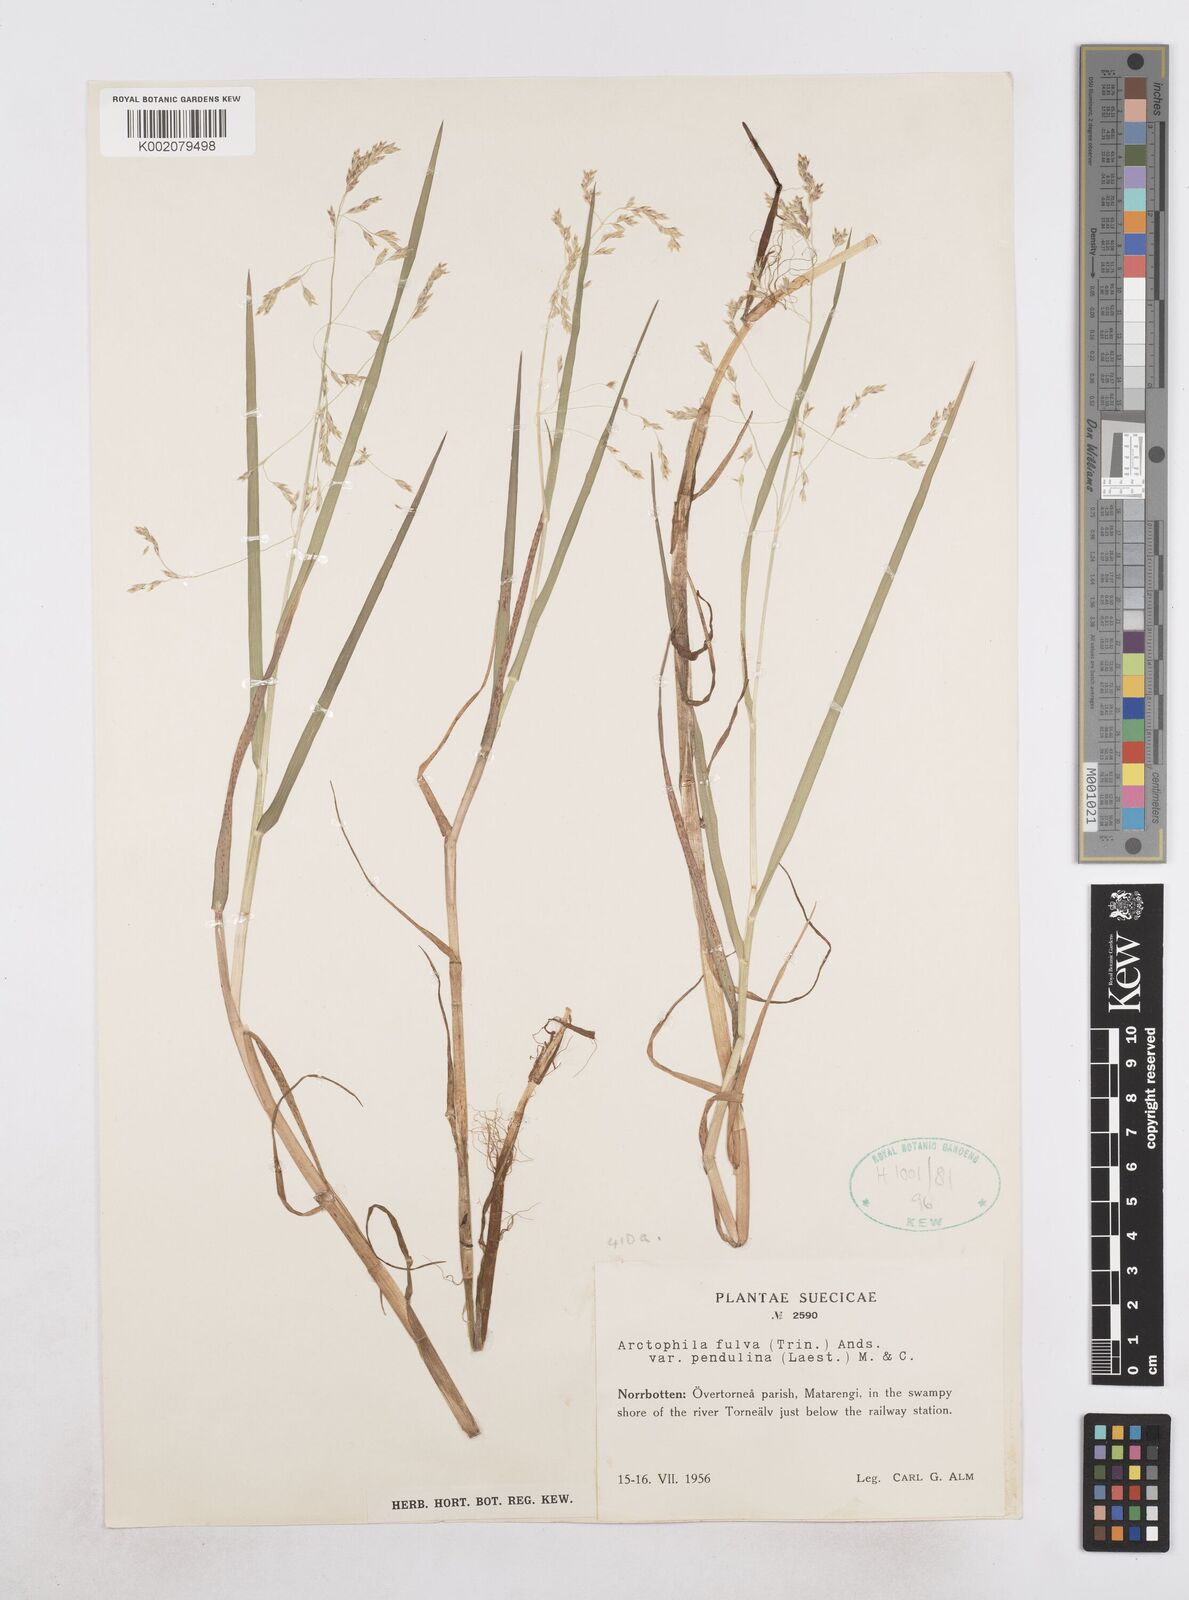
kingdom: Plantae
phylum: Tracheophyta
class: Liliopsida
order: Poales
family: Poaceae
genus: Dupontia
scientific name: Dupontia fulva
